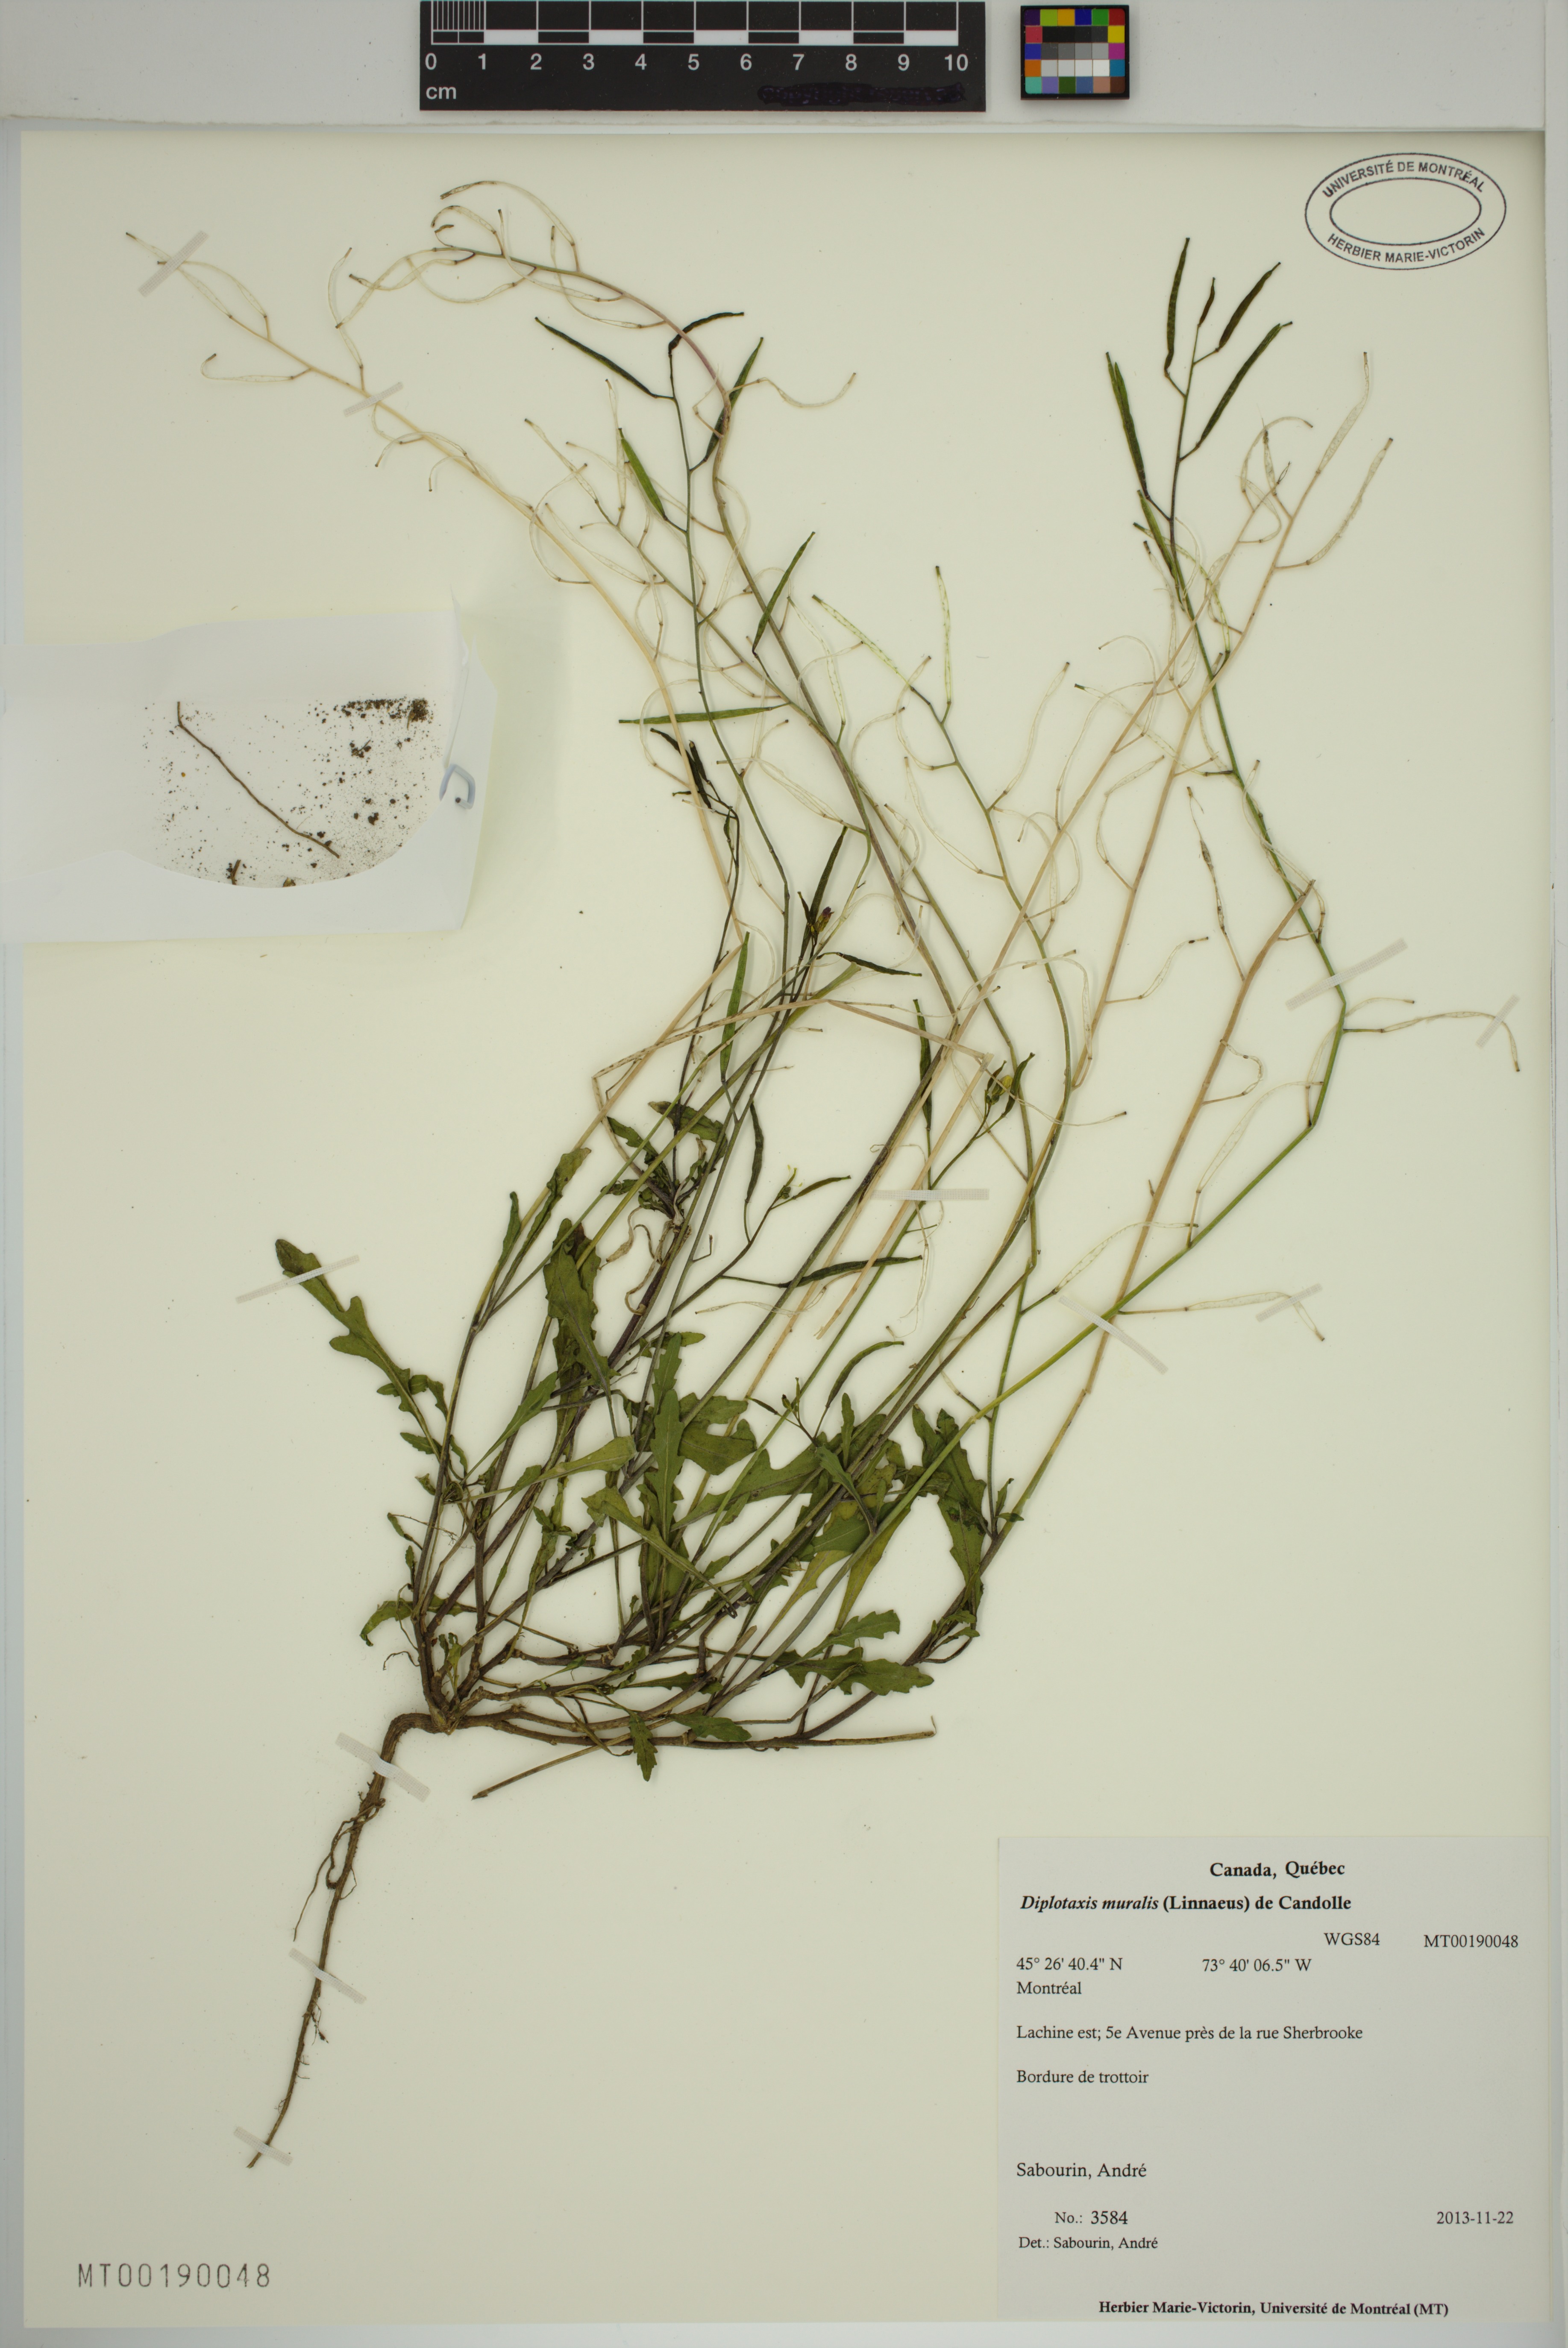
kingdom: Plantae
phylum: Tracheophyta
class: Magnoliopsida
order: Brassicales
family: Brassicaceae
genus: Diplotaxis
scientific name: Diplotaxis muralis
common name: Annual wall-rocket
